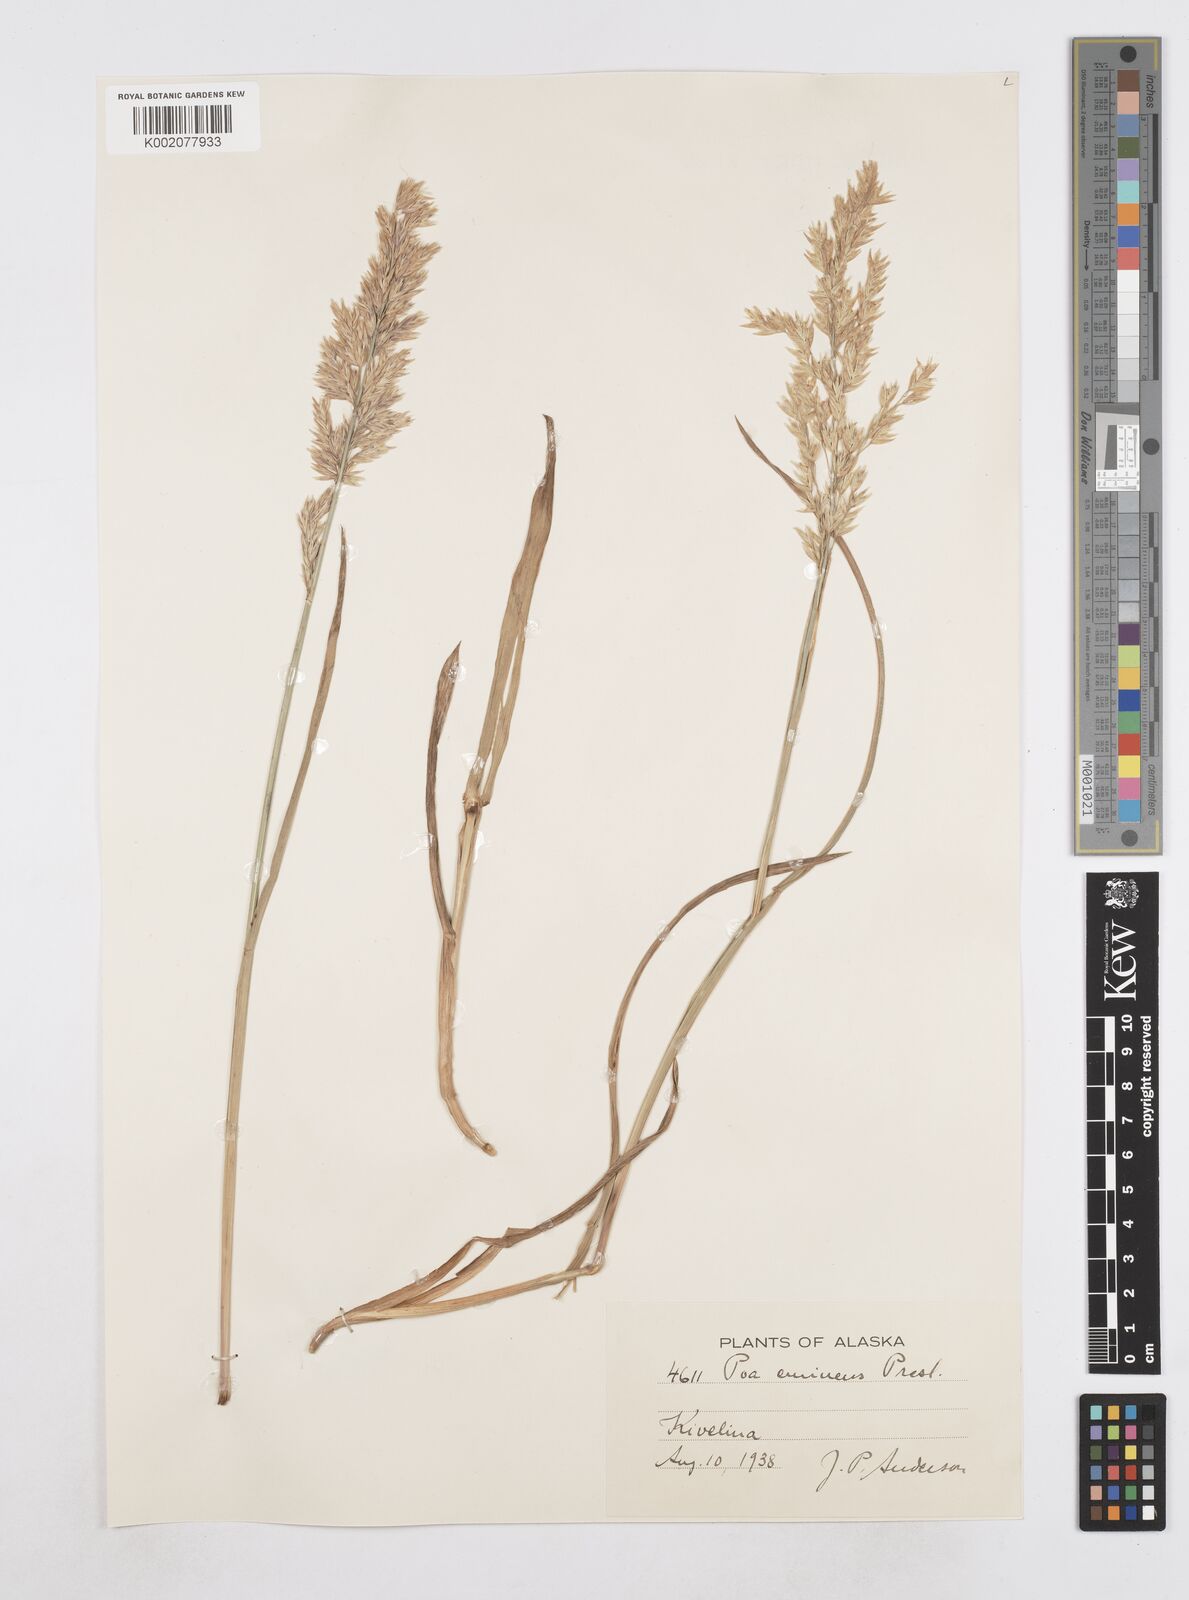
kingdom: Plantae
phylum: Tracheophyta
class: Liliopsida
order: Poales
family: Poaceae
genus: Arctopoa
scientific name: Arctopoa eminens
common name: Eminent bluegrass
